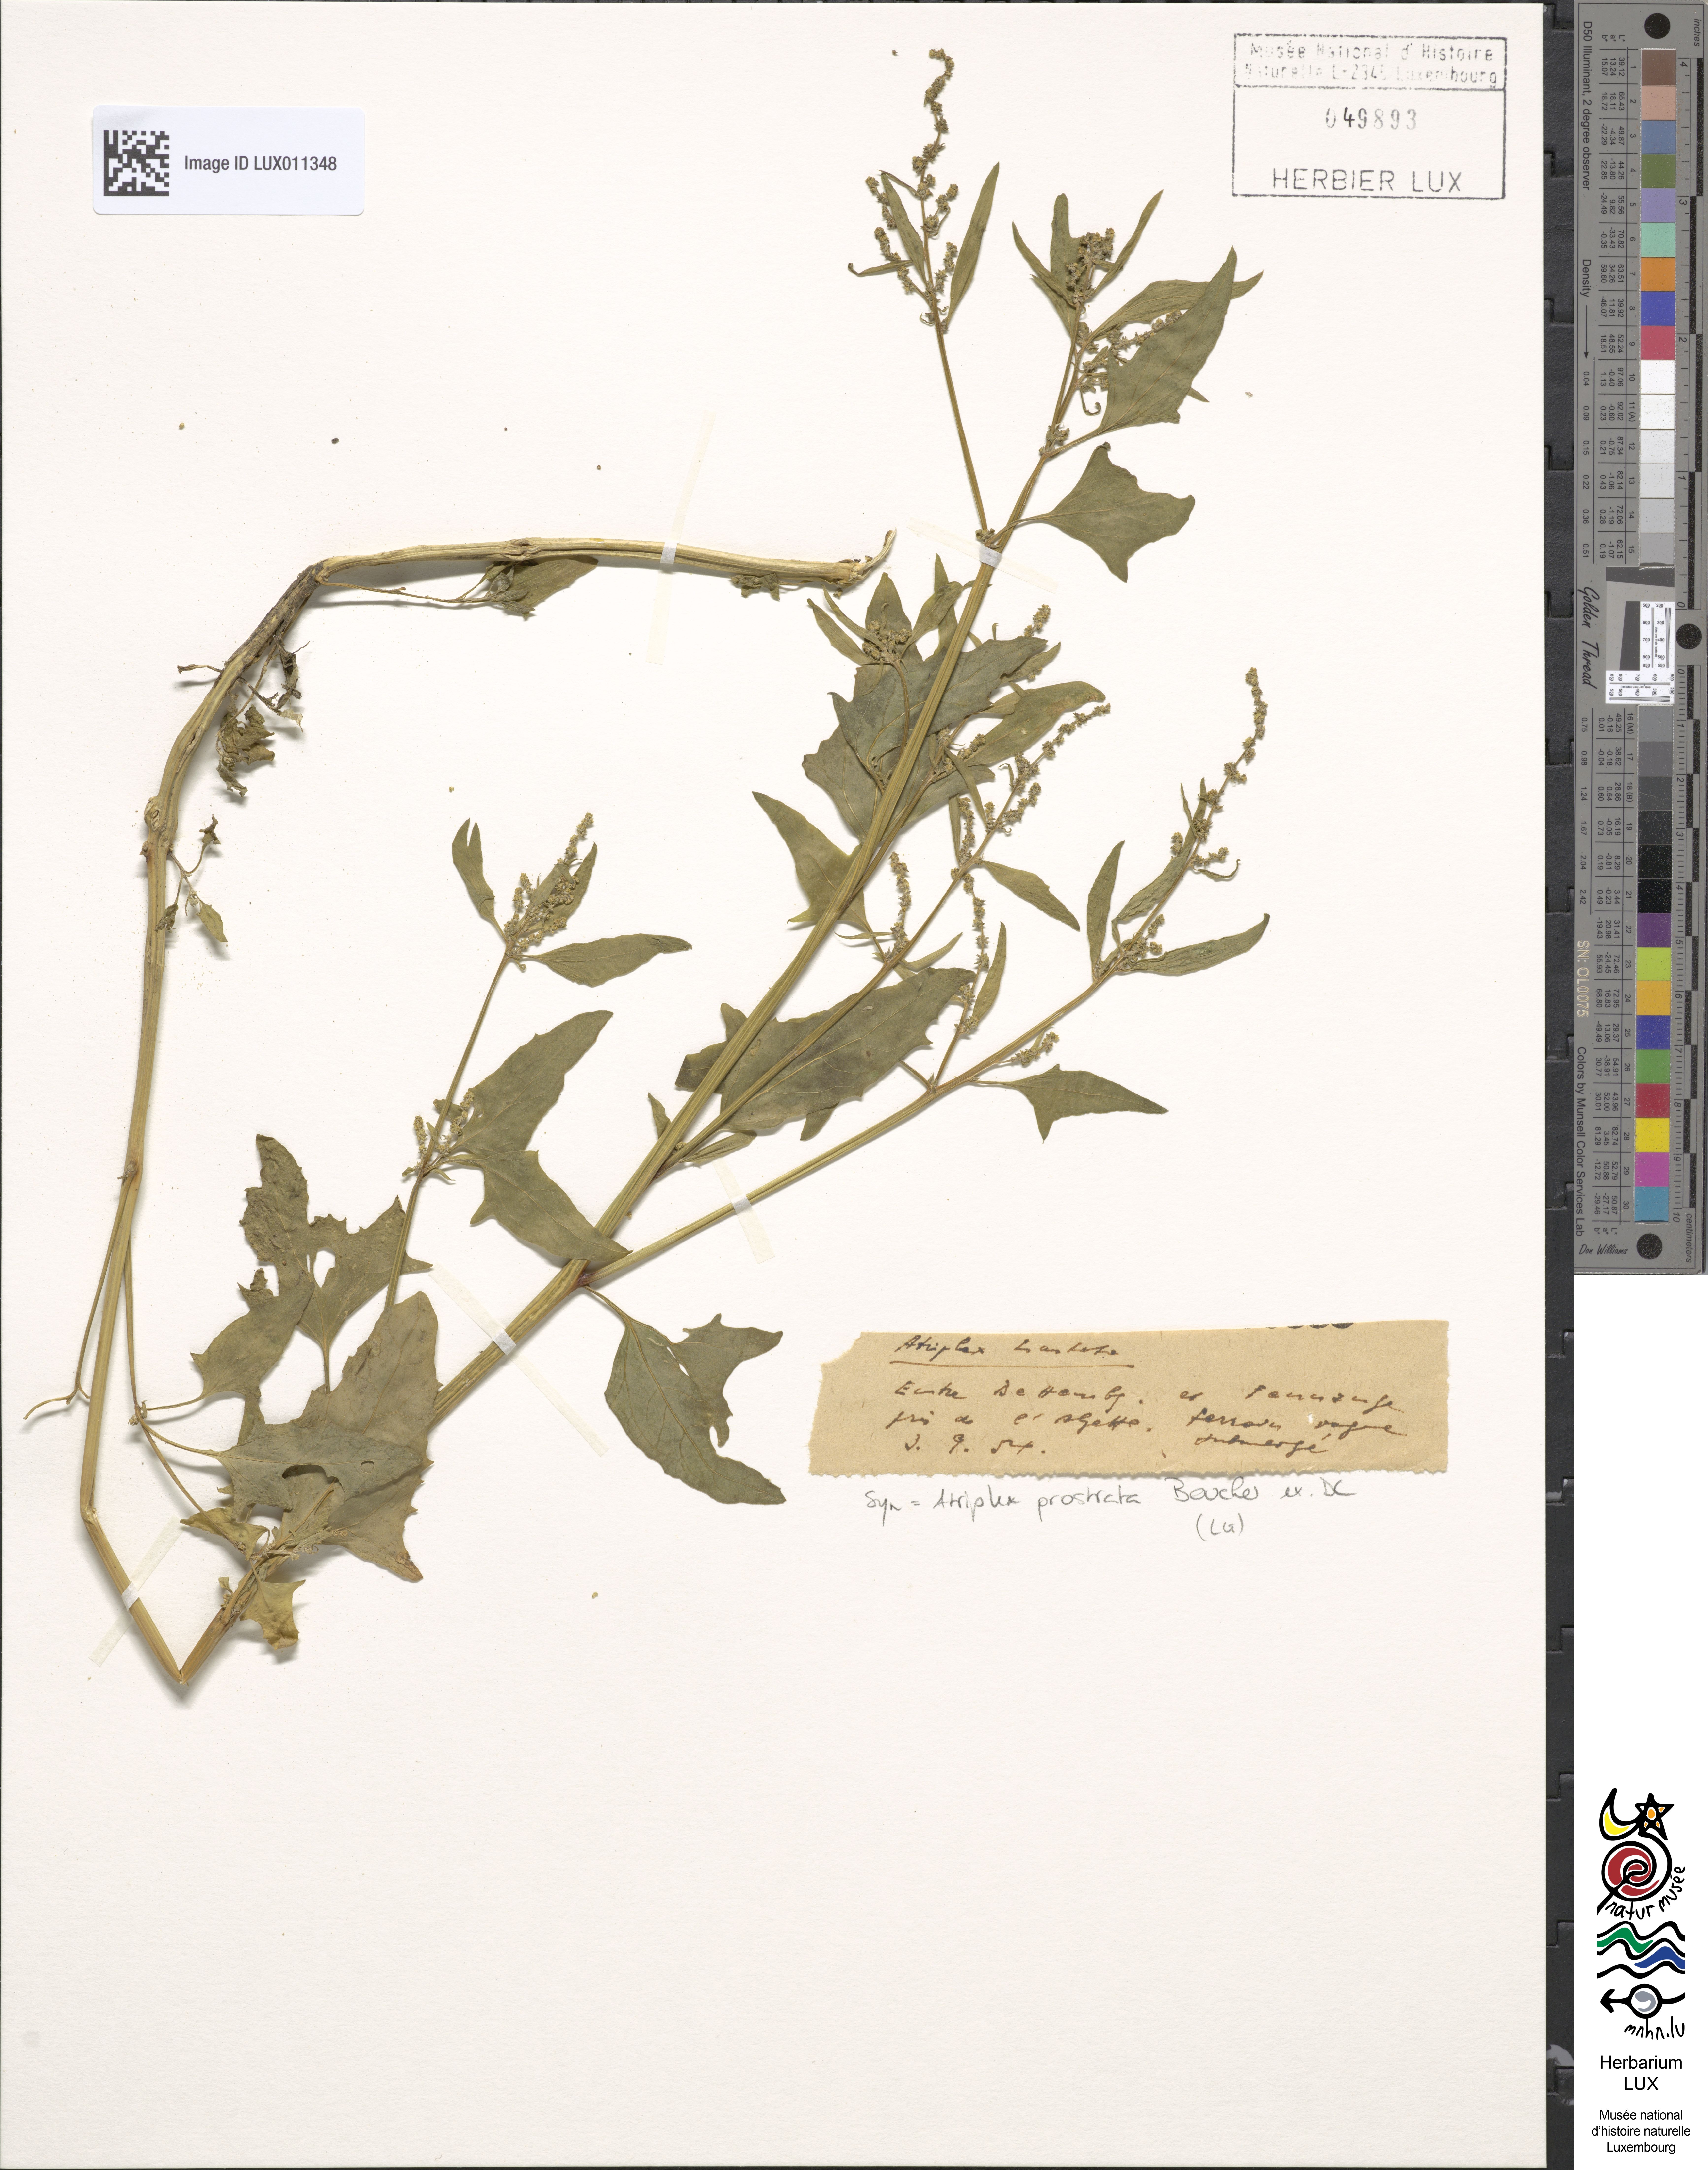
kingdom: Plantae
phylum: Tracheophyta
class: Magnoliopsida
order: Caryophyllales
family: Amaranthaceae
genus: Atriplex
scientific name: Atriplex
